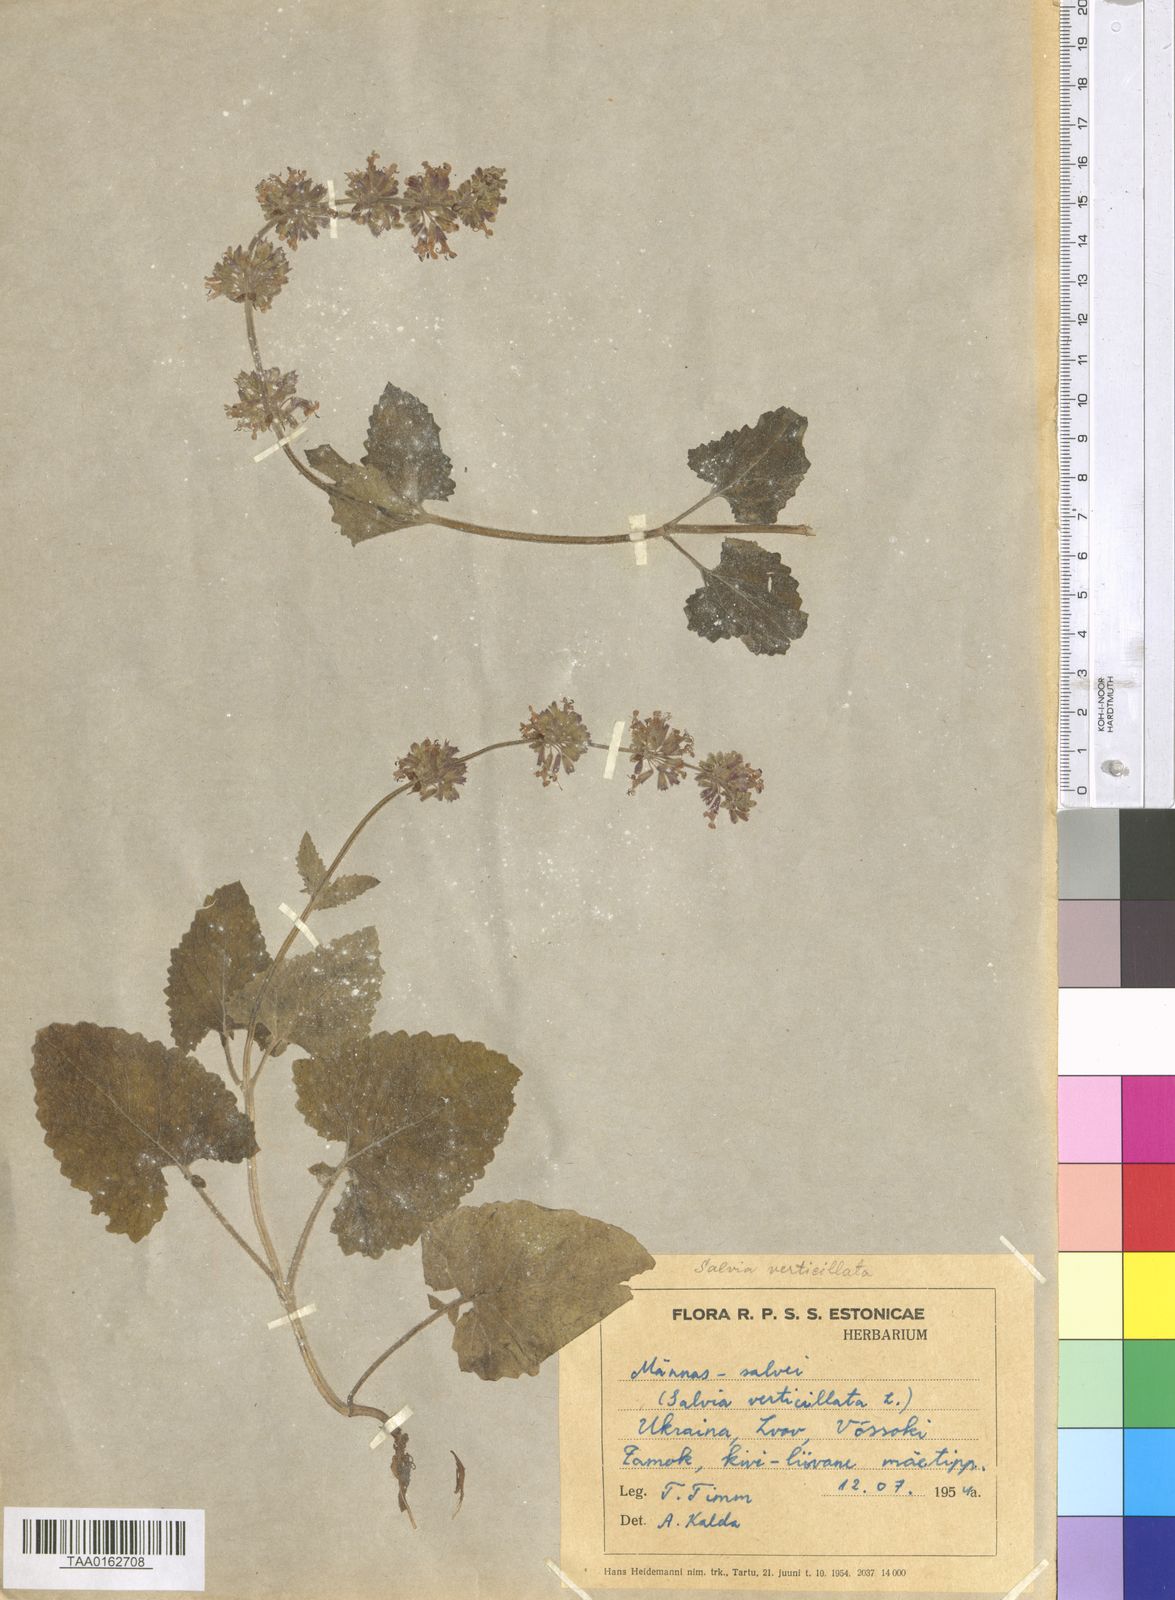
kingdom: Plantae
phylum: Tracheophyta
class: Magnoliopsida
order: Lamiales
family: Lamiaceae
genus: Salvia
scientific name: Salvia verticillata
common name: Whorled clary
